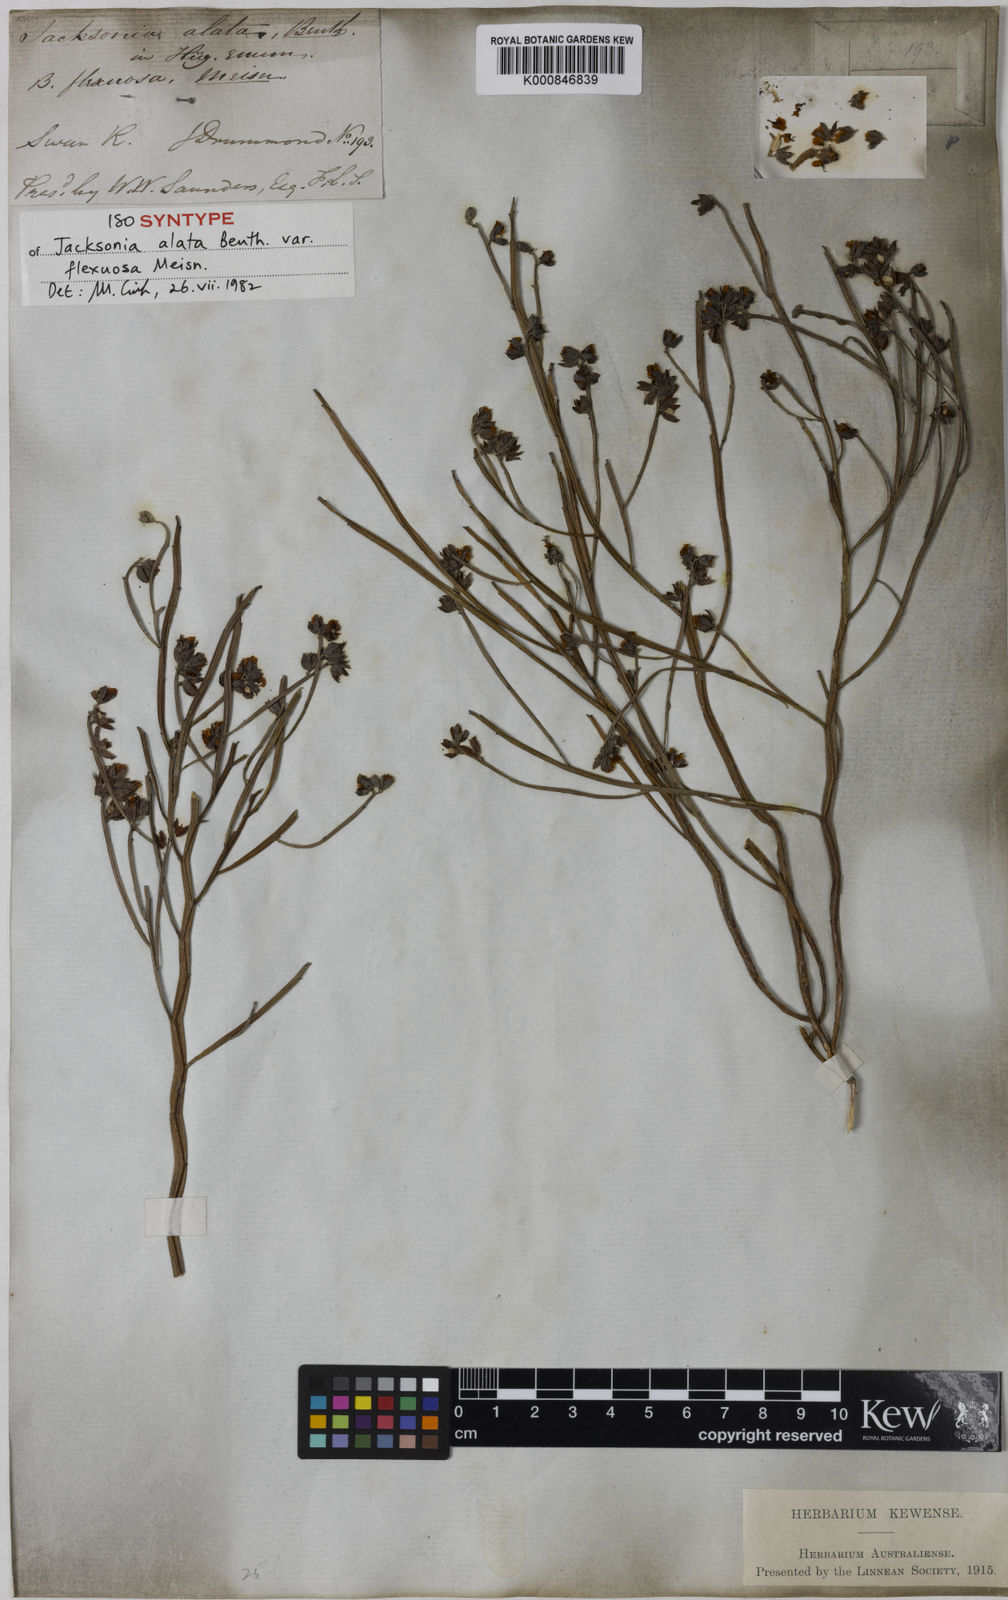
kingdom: Plantae
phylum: Tracheophyta
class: Magnoliopsida
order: Fabales
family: Fabaceae
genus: Jacksonia
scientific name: Jacksonia alata
